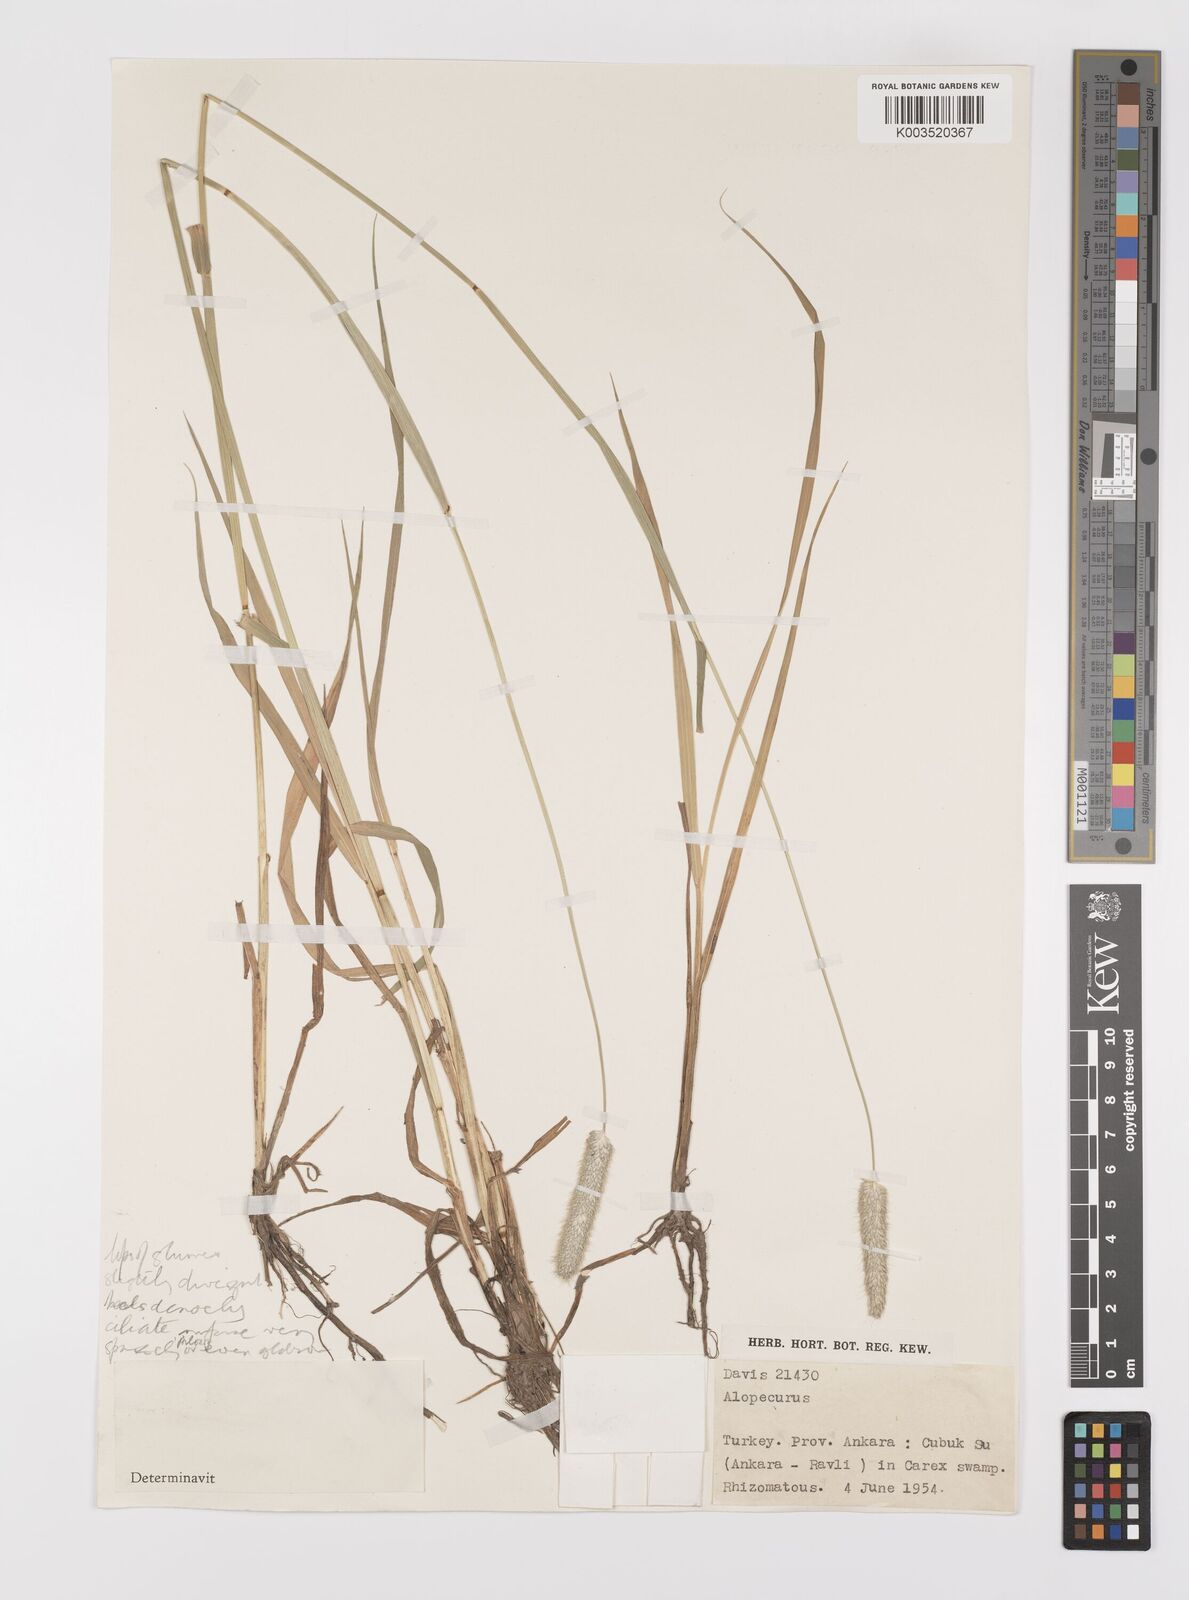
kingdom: Plantae
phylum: Tracheophyta
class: Liliopsida
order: Poales
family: Poaceae
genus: Alopecurus
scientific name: Alopecurus arundinaceus
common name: Creeping meadow foxtail
